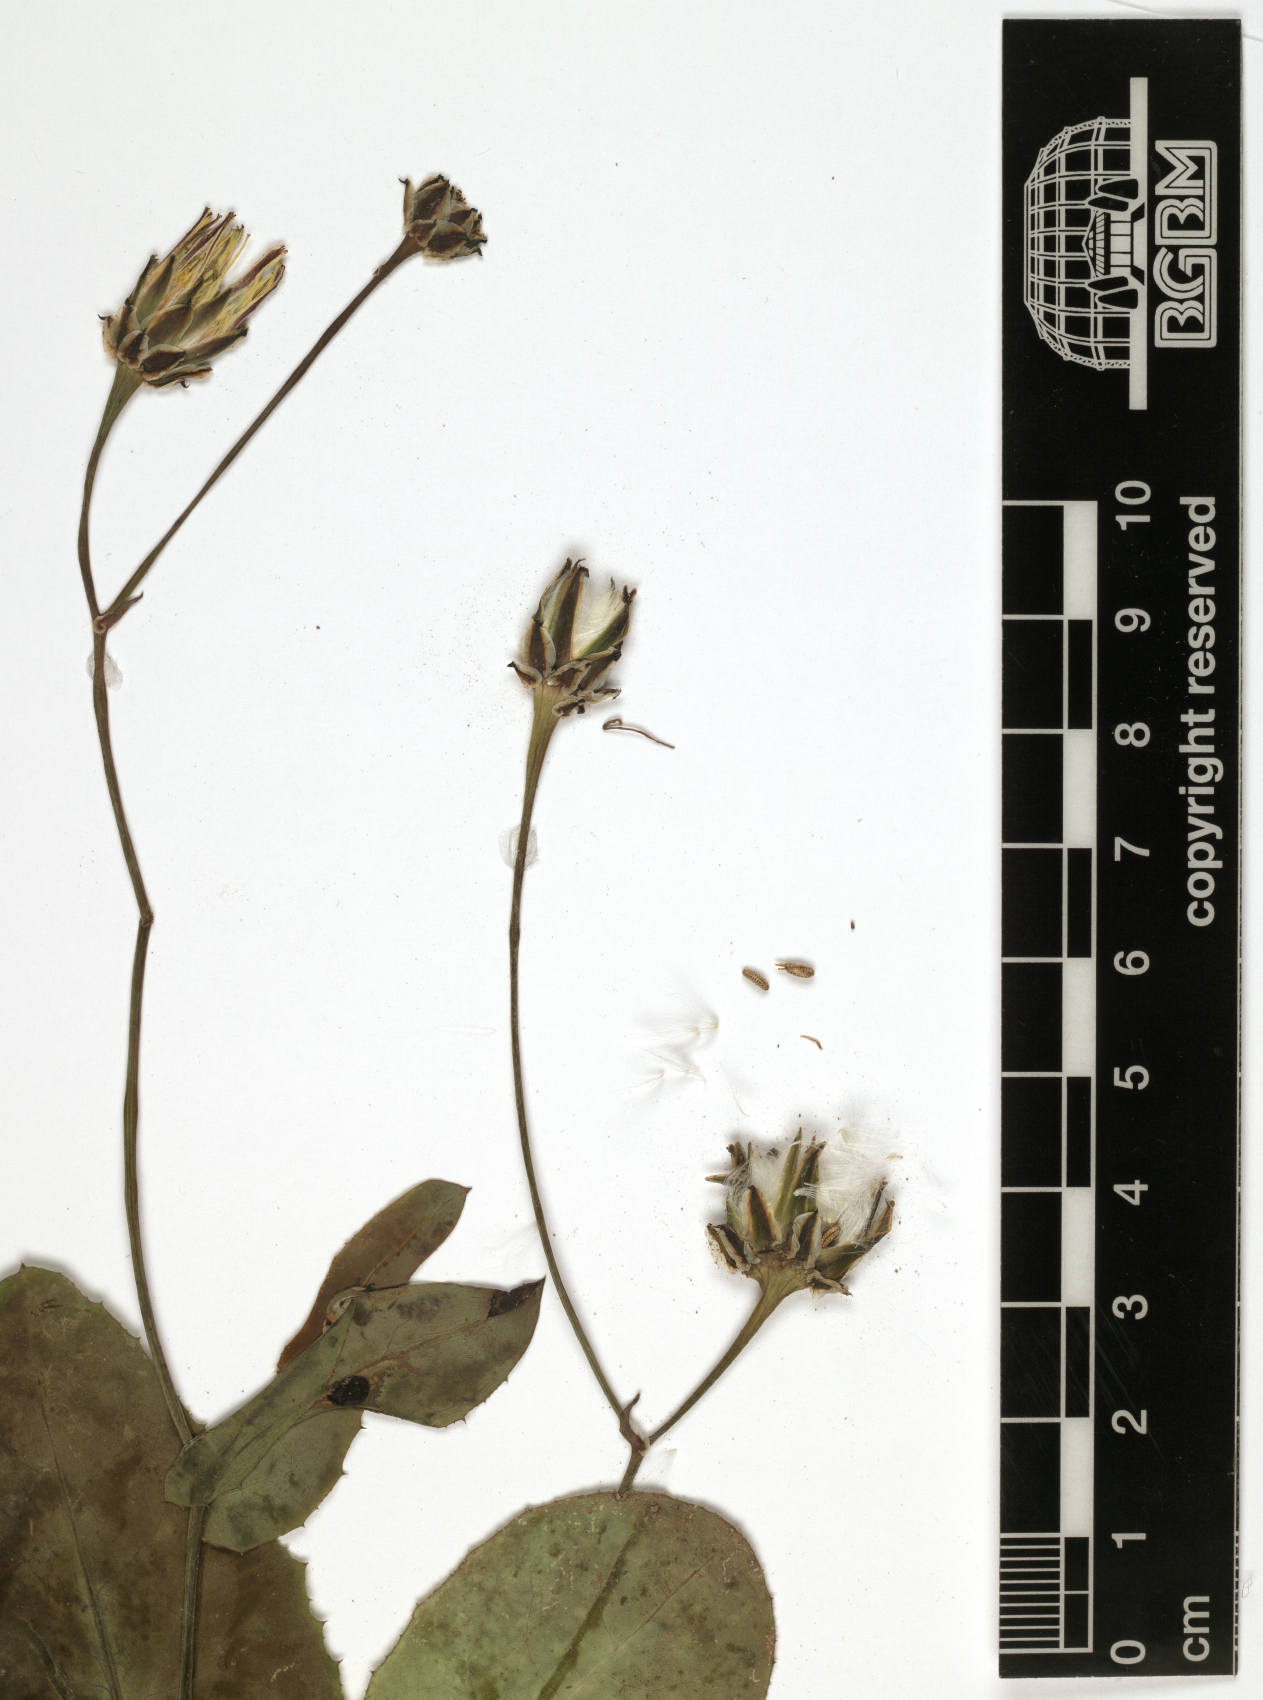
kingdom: Plantae
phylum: Tracheophyta
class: Magnoliopsida
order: Asterales
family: Asteraceae
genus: Reichardia
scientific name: Reichardia tingitana
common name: Reichardia
